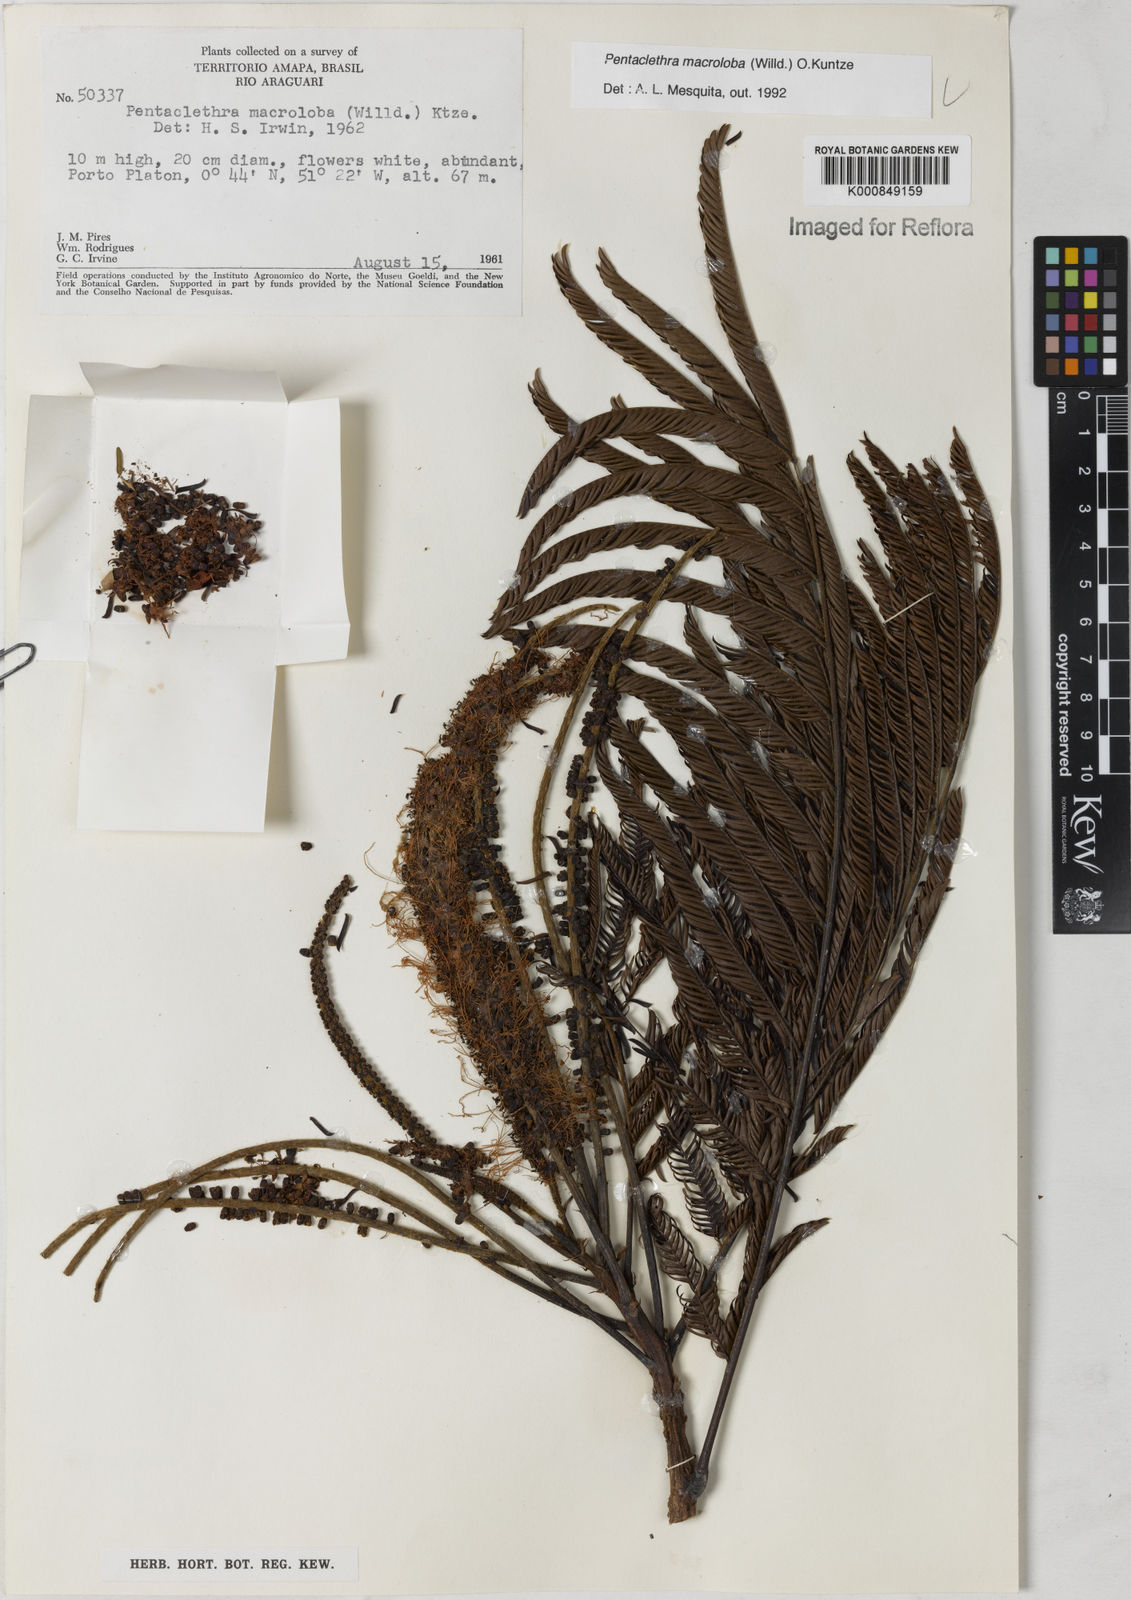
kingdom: Plantae
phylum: Tracheophyta
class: Magnoliopsida
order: Fabales
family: Fabaceae
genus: Pentaclethra
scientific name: Pentaclethra macroloba
